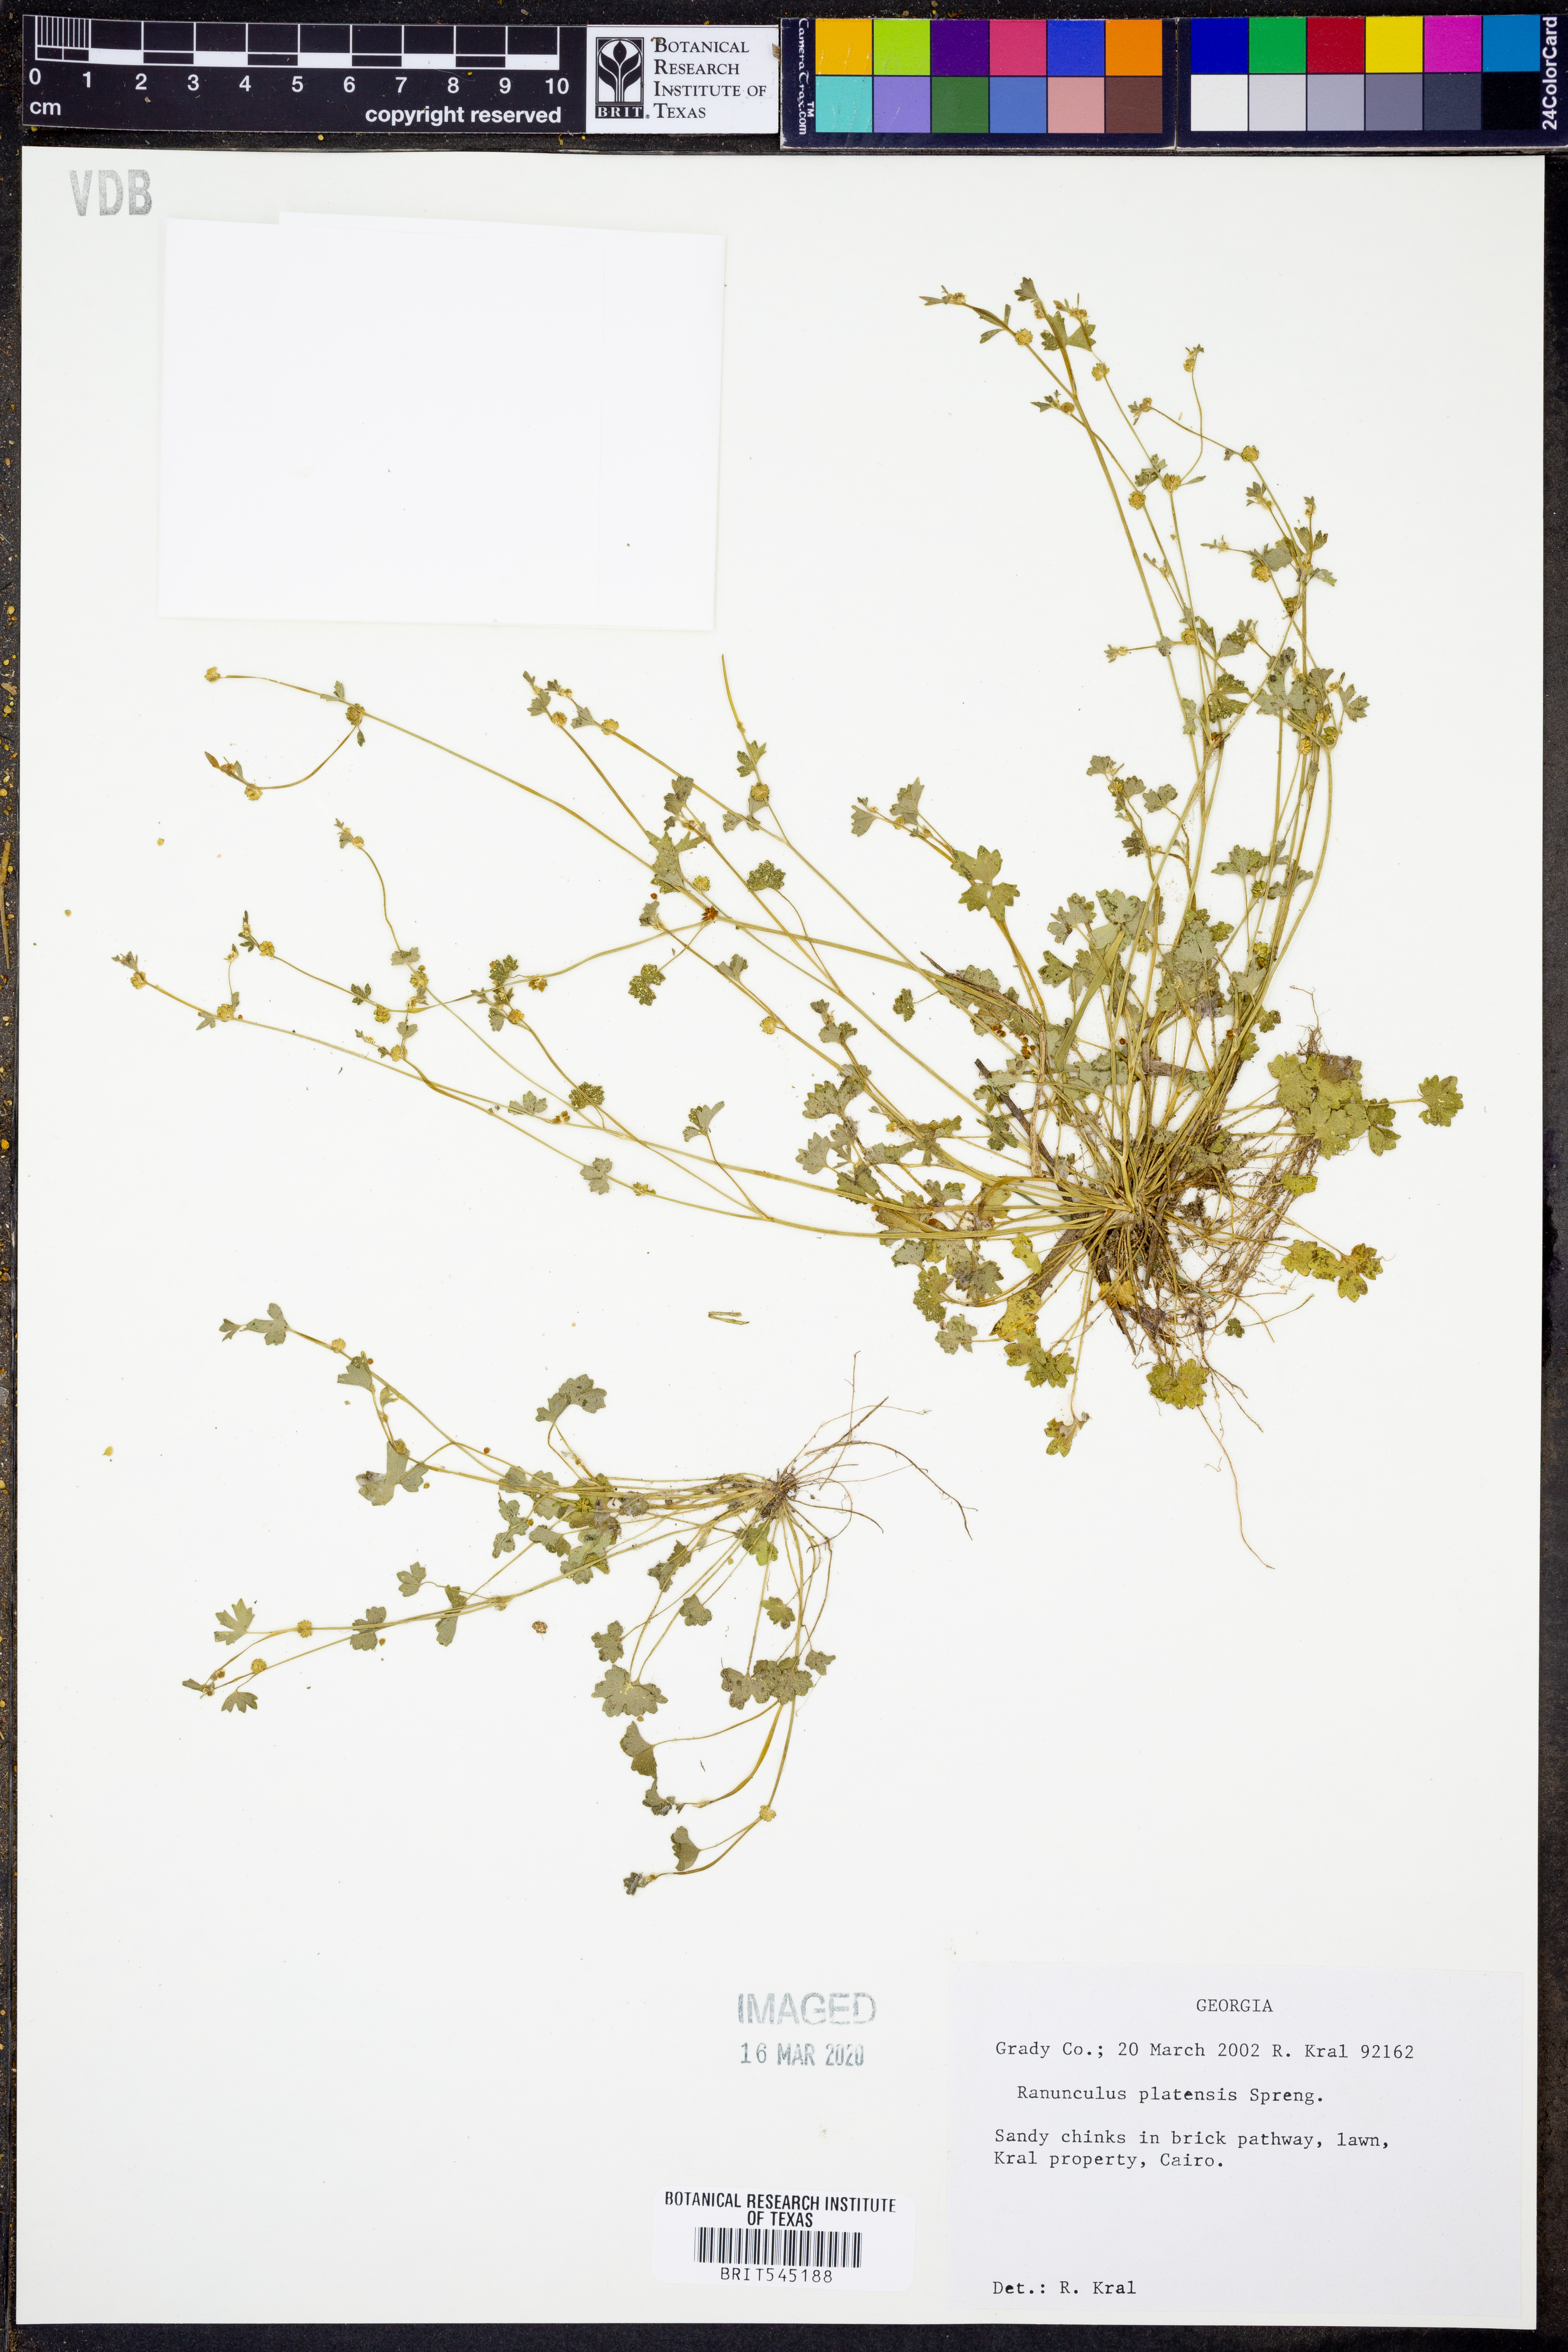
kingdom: Plantae
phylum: Tracheophyta
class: Magnoliopsida
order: Ranunculales
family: Ranunculaceae
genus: Ranunculus
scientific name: Ranunculus platensis
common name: Prairie buttercup
